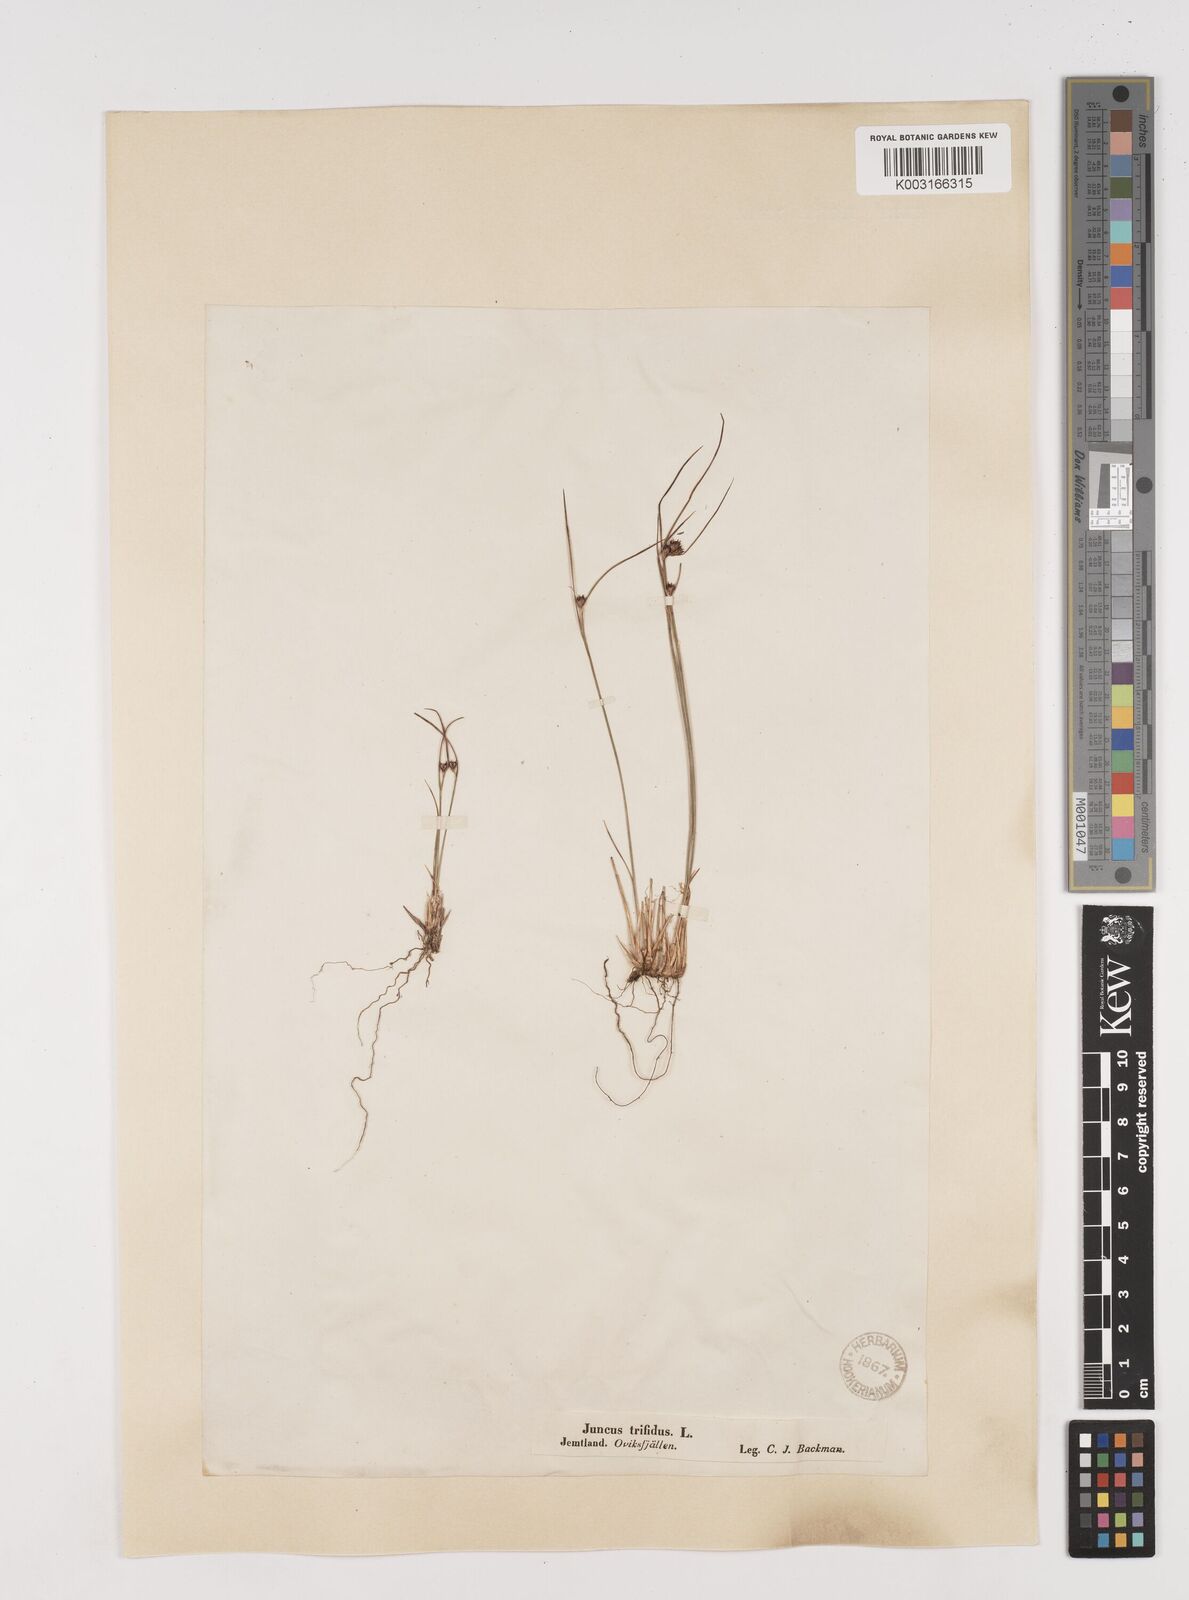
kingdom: Plantae
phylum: Tracheophyta
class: Liliopsida
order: Poales
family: Juncaceae
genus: Oreojuncus
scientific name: Oreojuncus trifidus
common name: Highland rush
